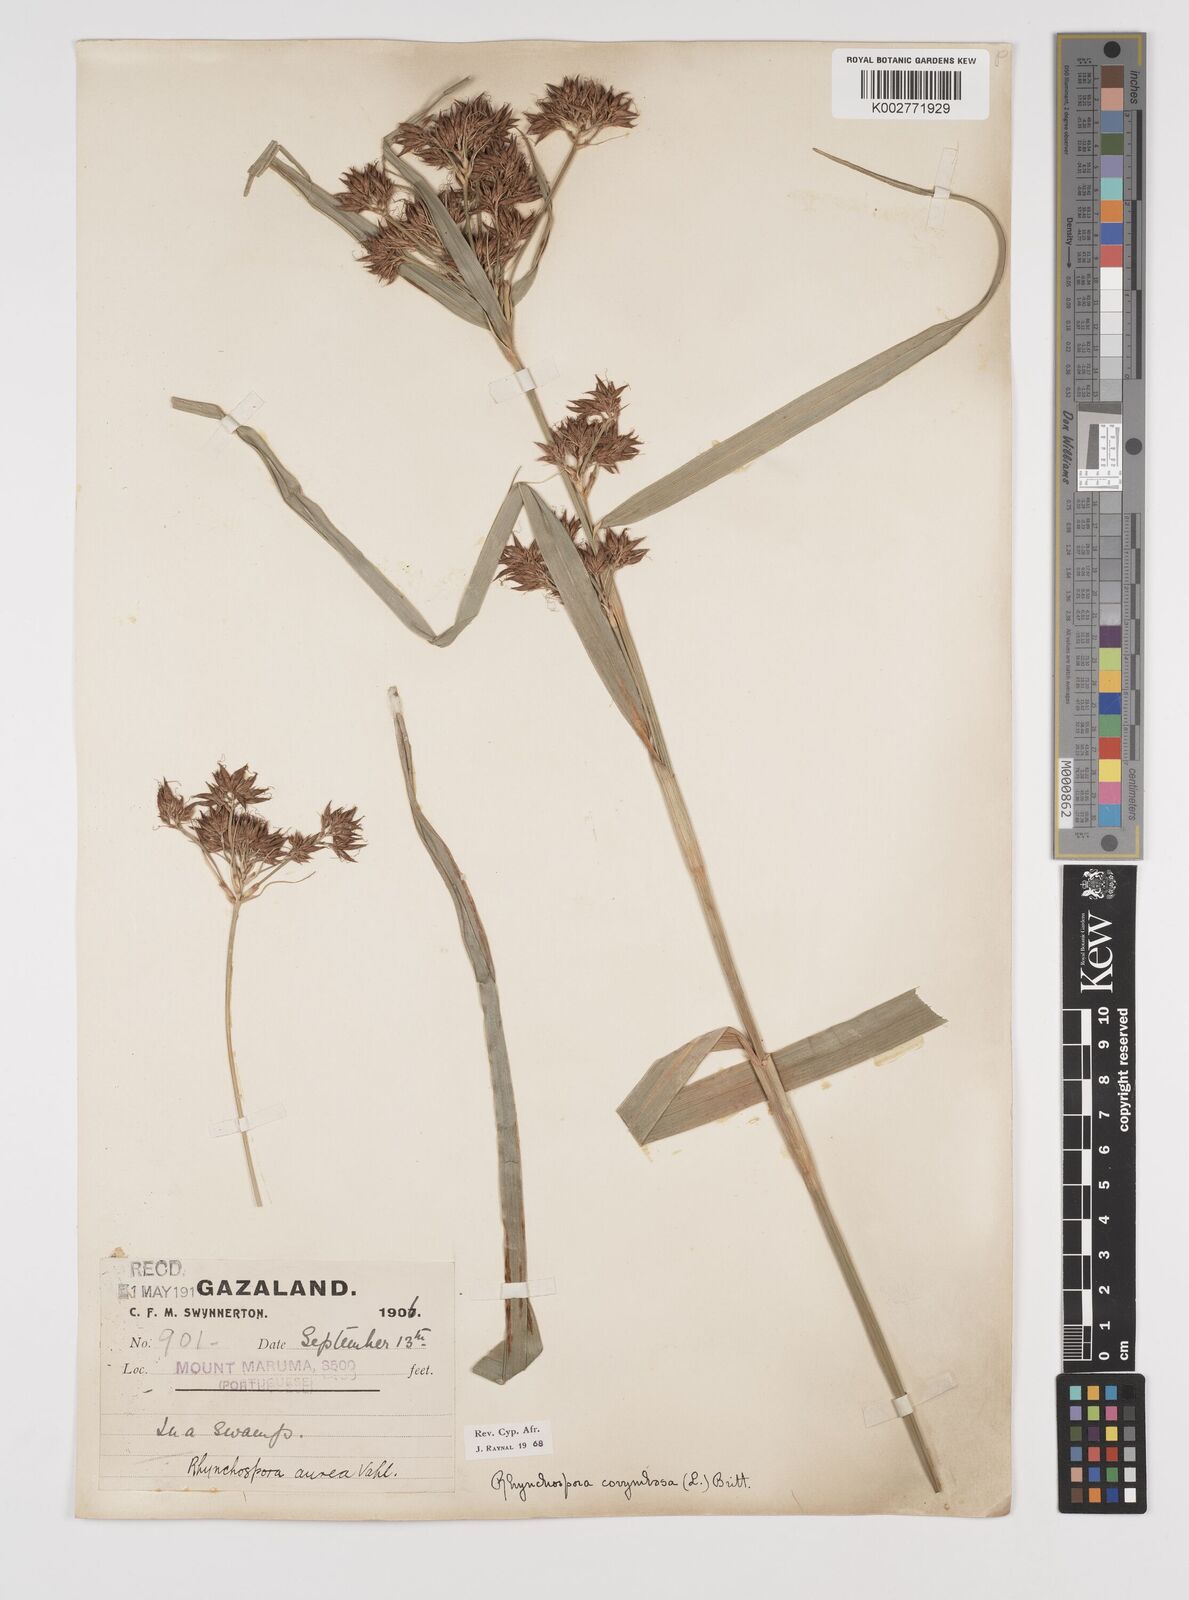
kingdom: Plantae
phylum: Tracheophyta
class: Liliopsida
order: Poales
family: Cyperaceae
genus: Rhynchospora
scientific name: Rhynchospora corymbosa
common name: Golden beak sedge
